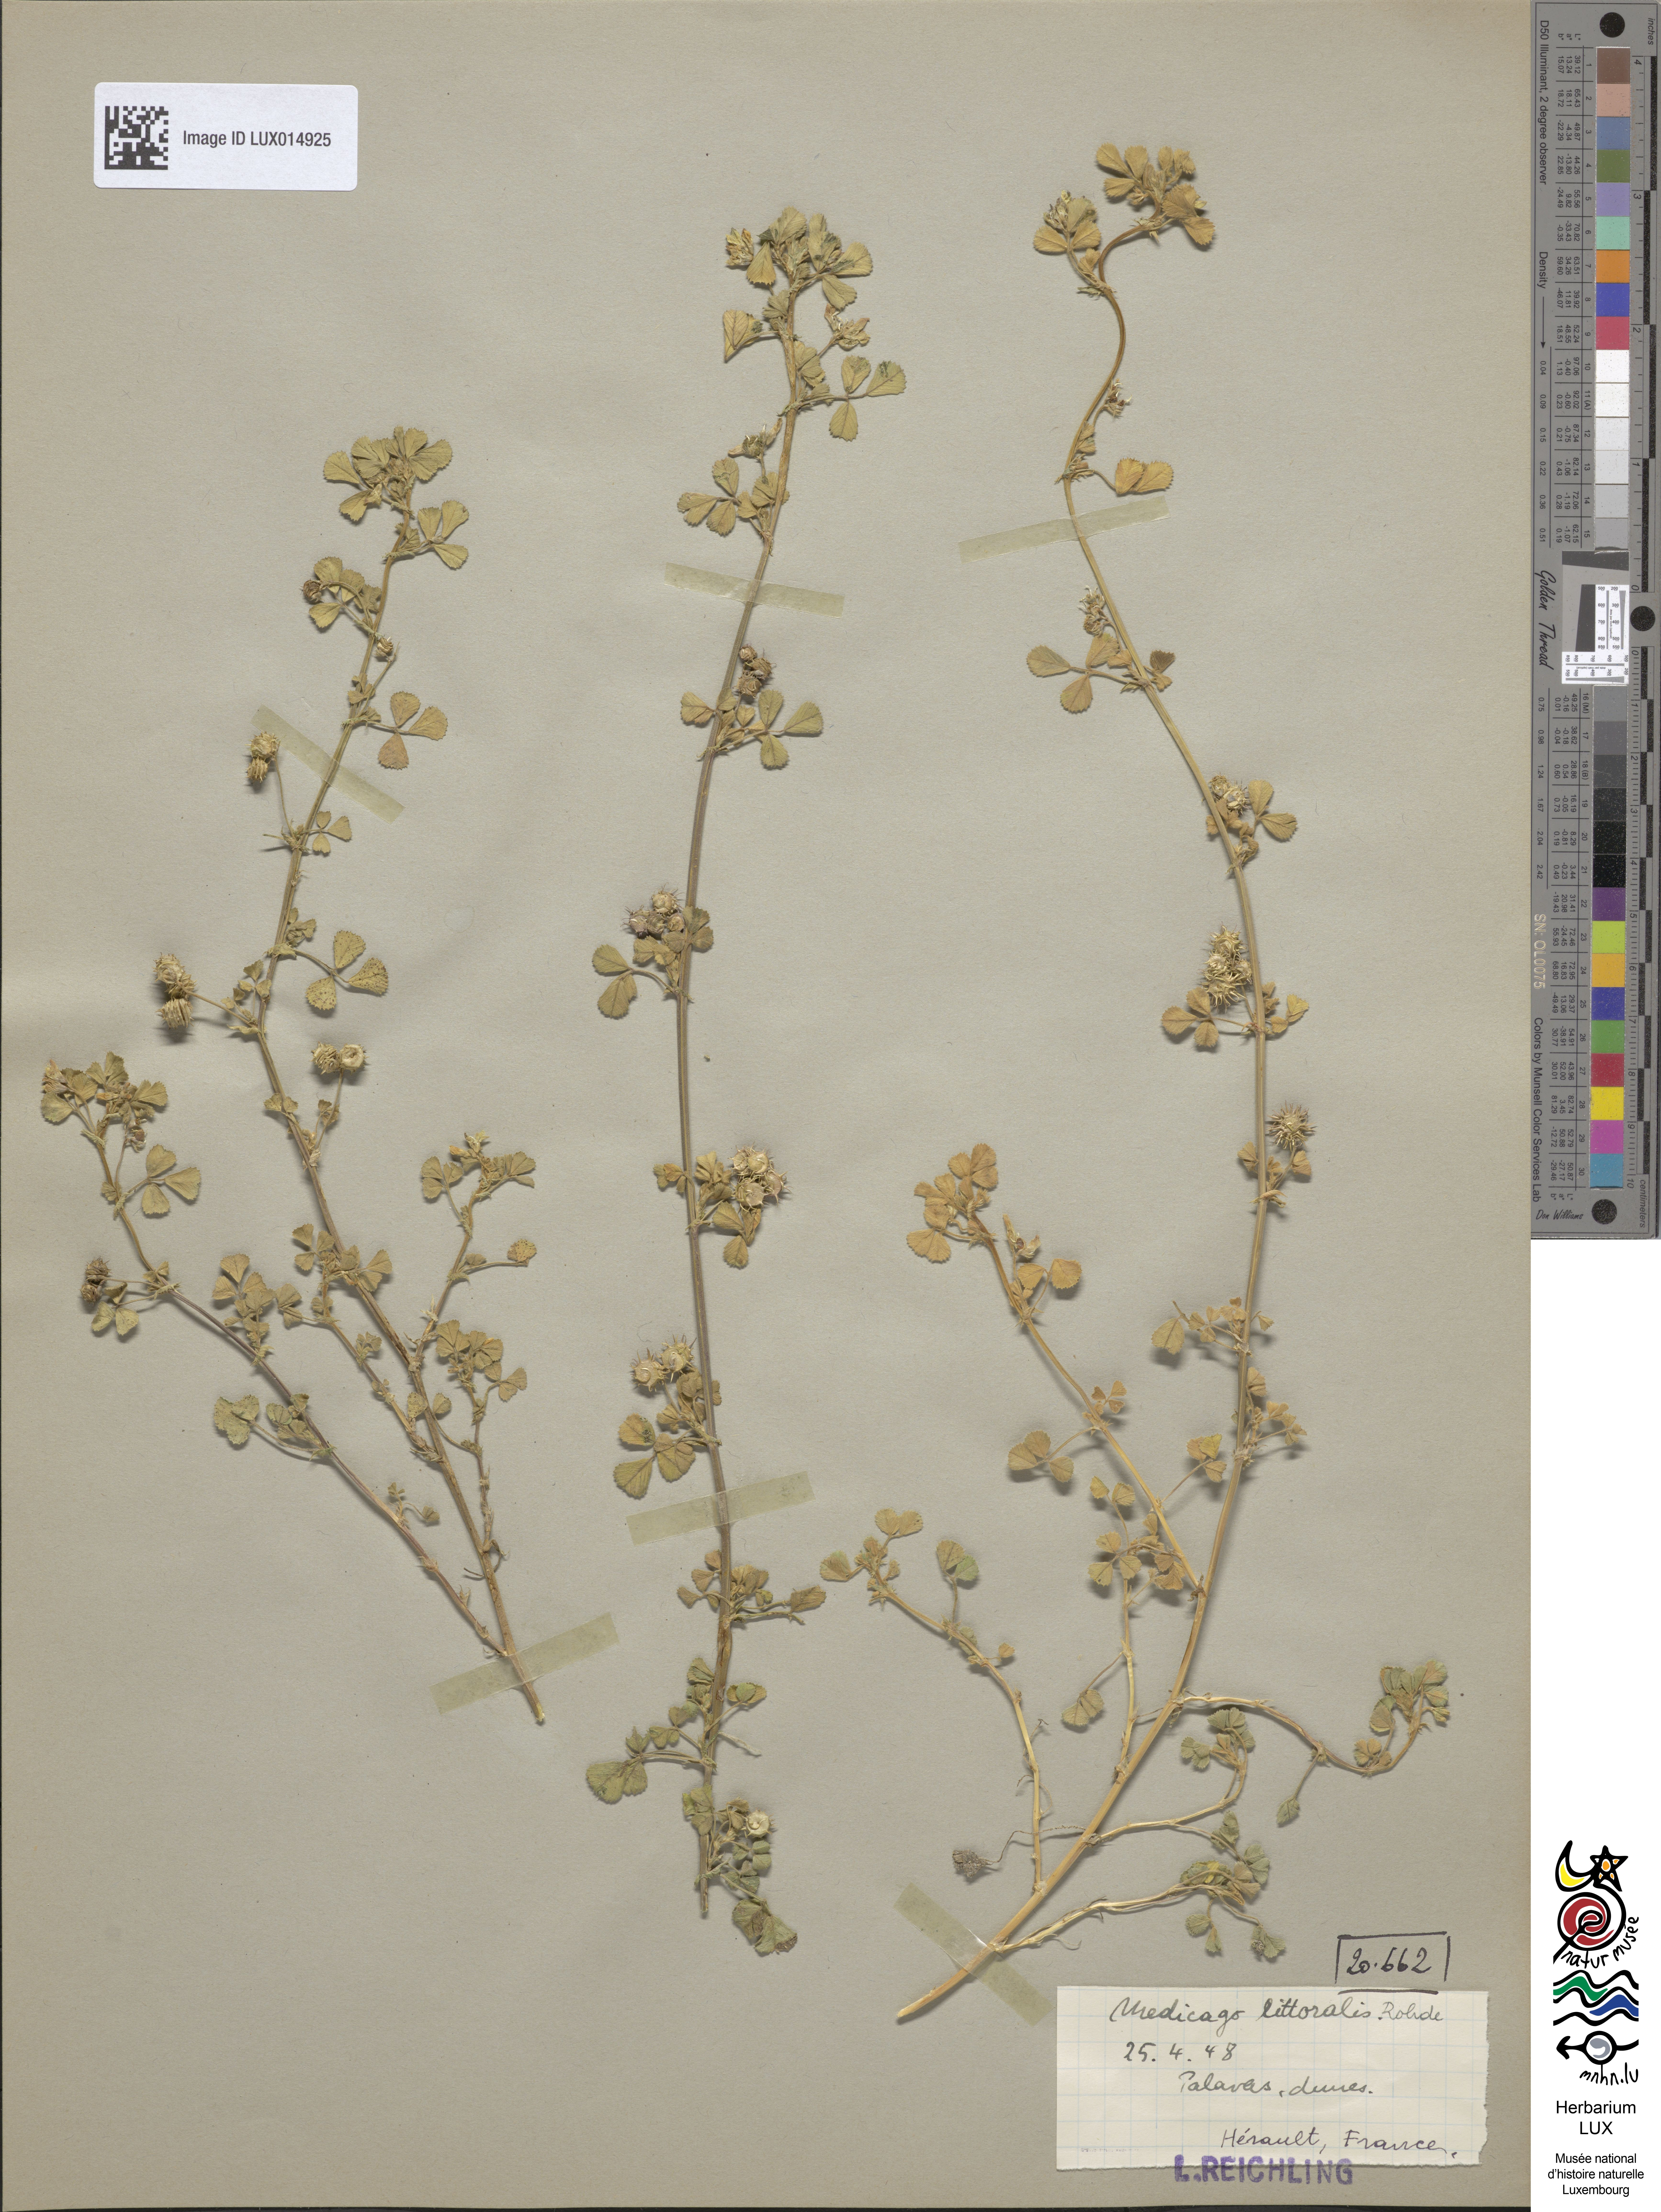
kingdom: Plantae
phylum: Tracheophyta
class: Magnoliopsida
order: Fabales
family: Fabaceae
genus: Medicago
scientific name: Medicago littoralis
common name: Shore medick
